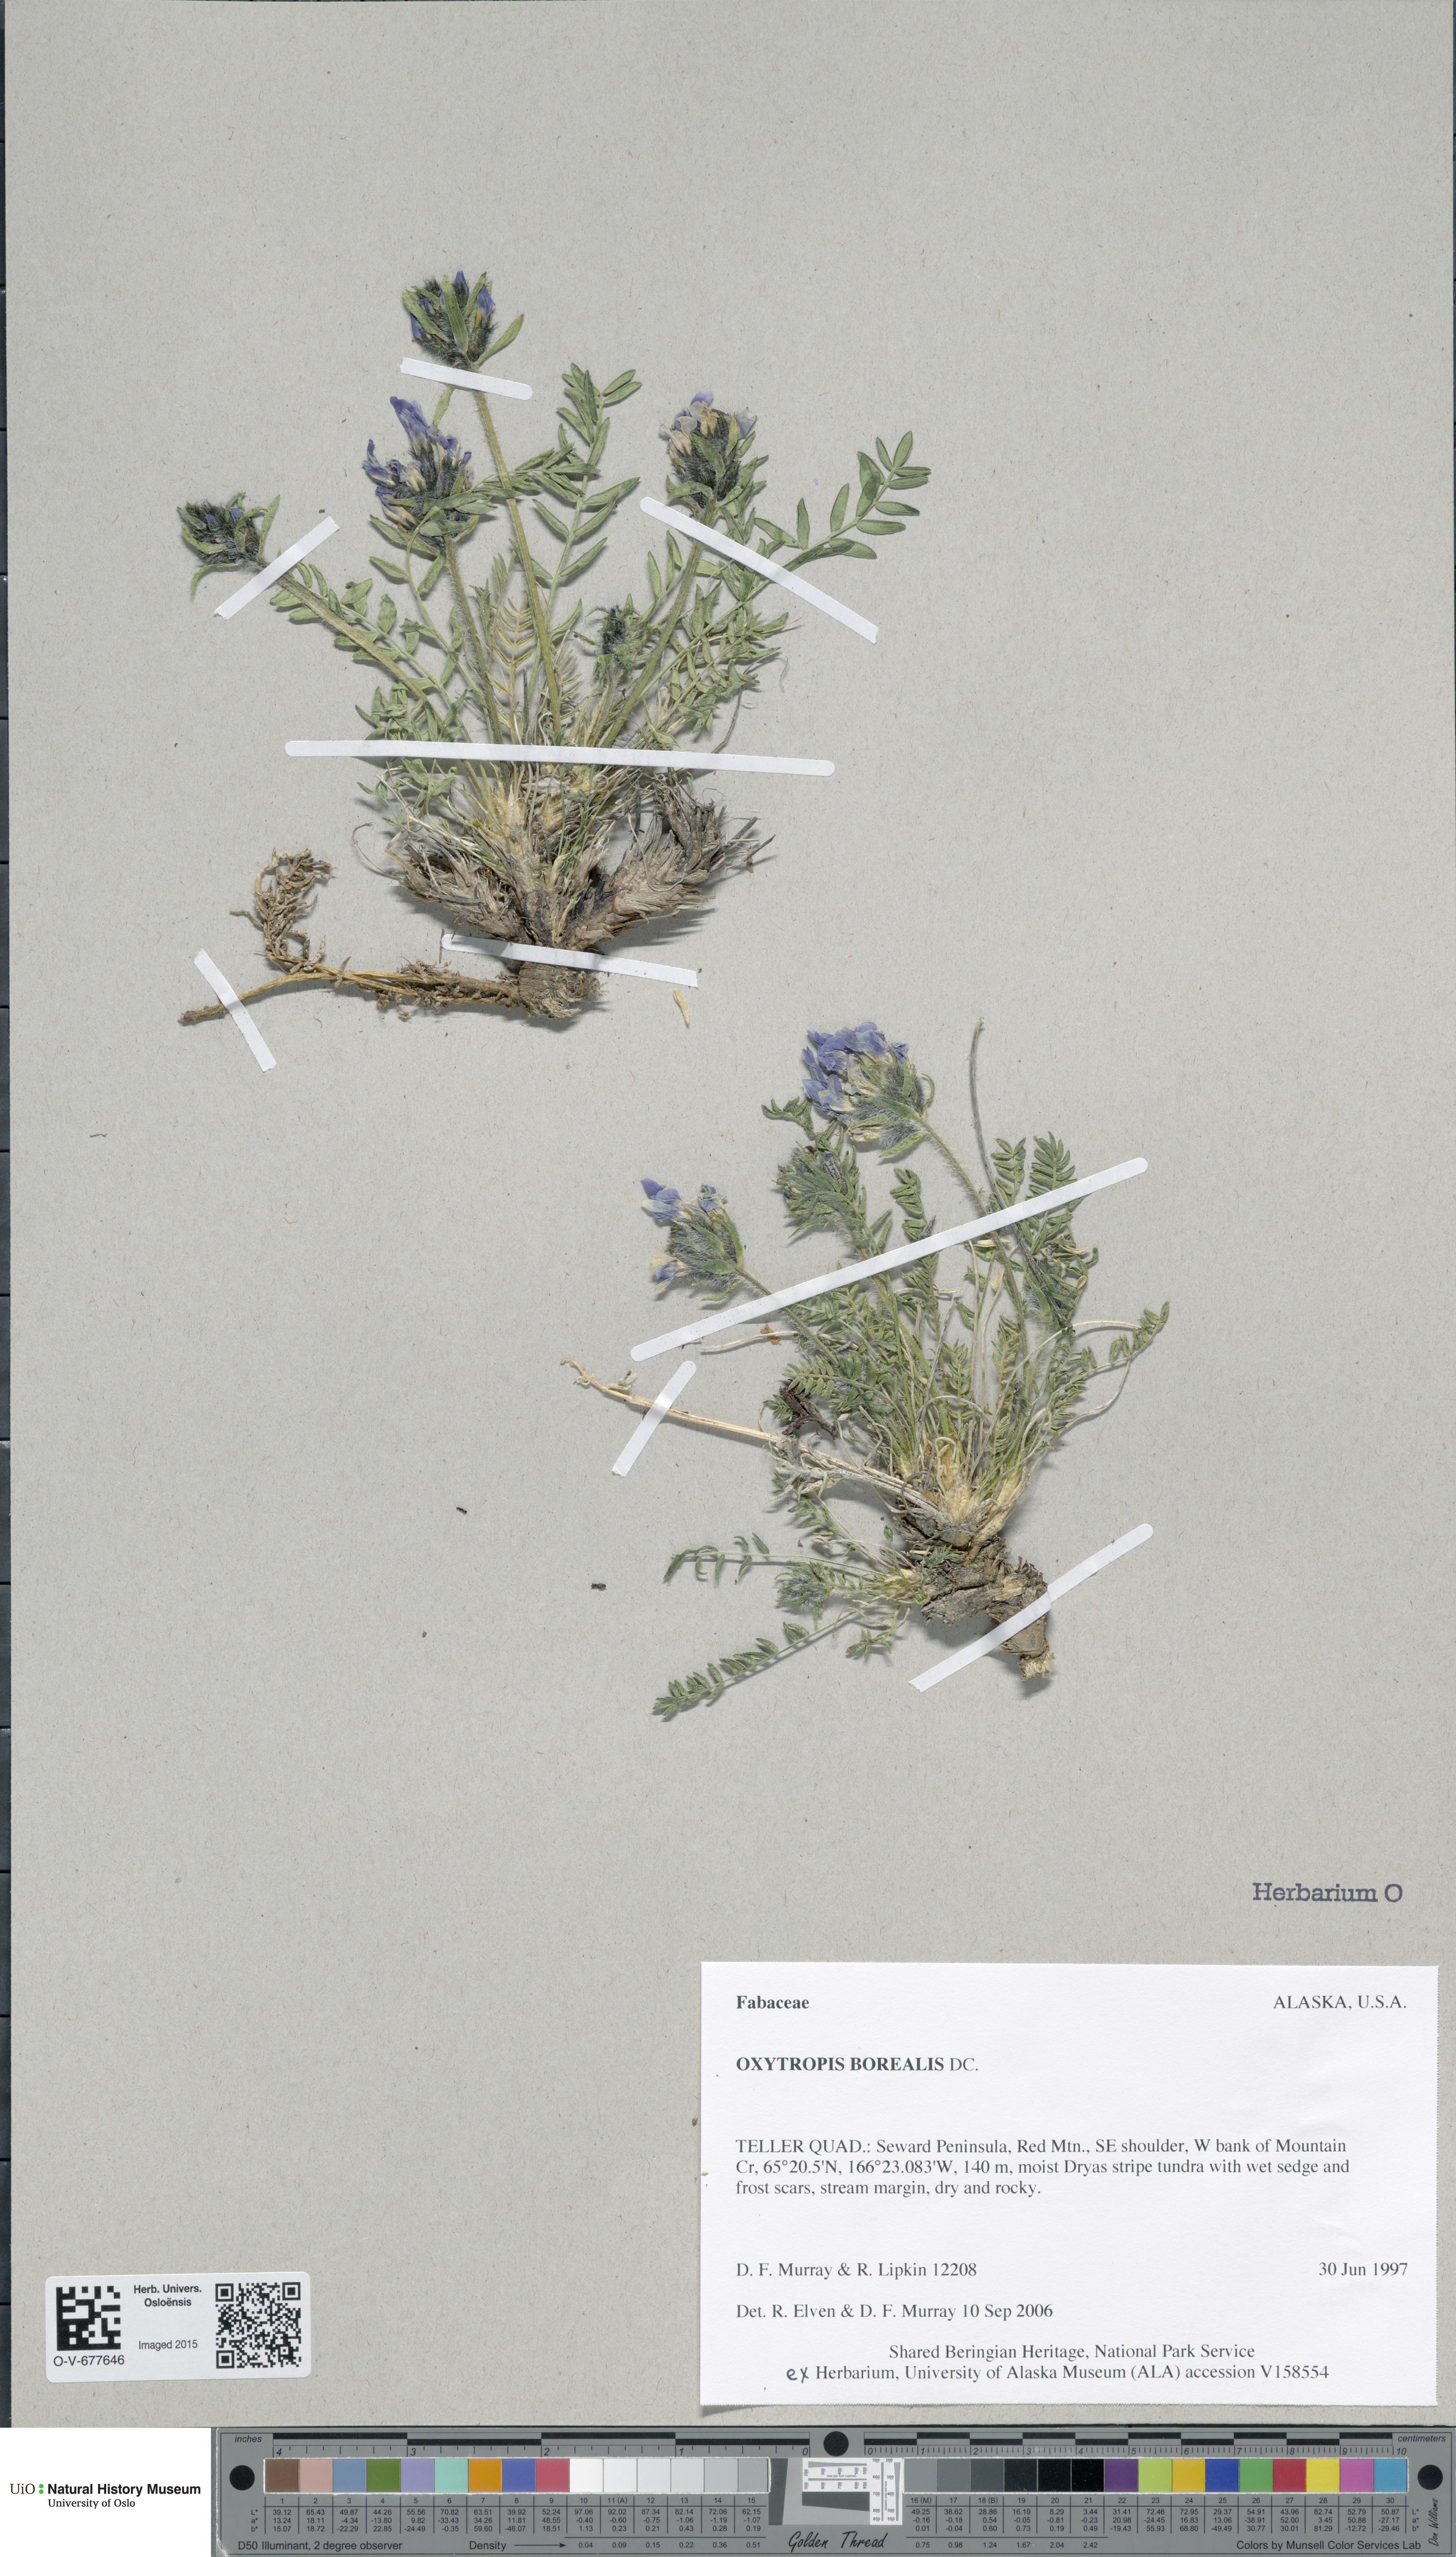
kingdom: Plantae
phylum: Tracheophyta
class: Magnoliopsida
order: Fabales
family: Fabaceae
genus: Oxytropis
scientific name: Oxytropis borealis
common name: Boreal locoweed
